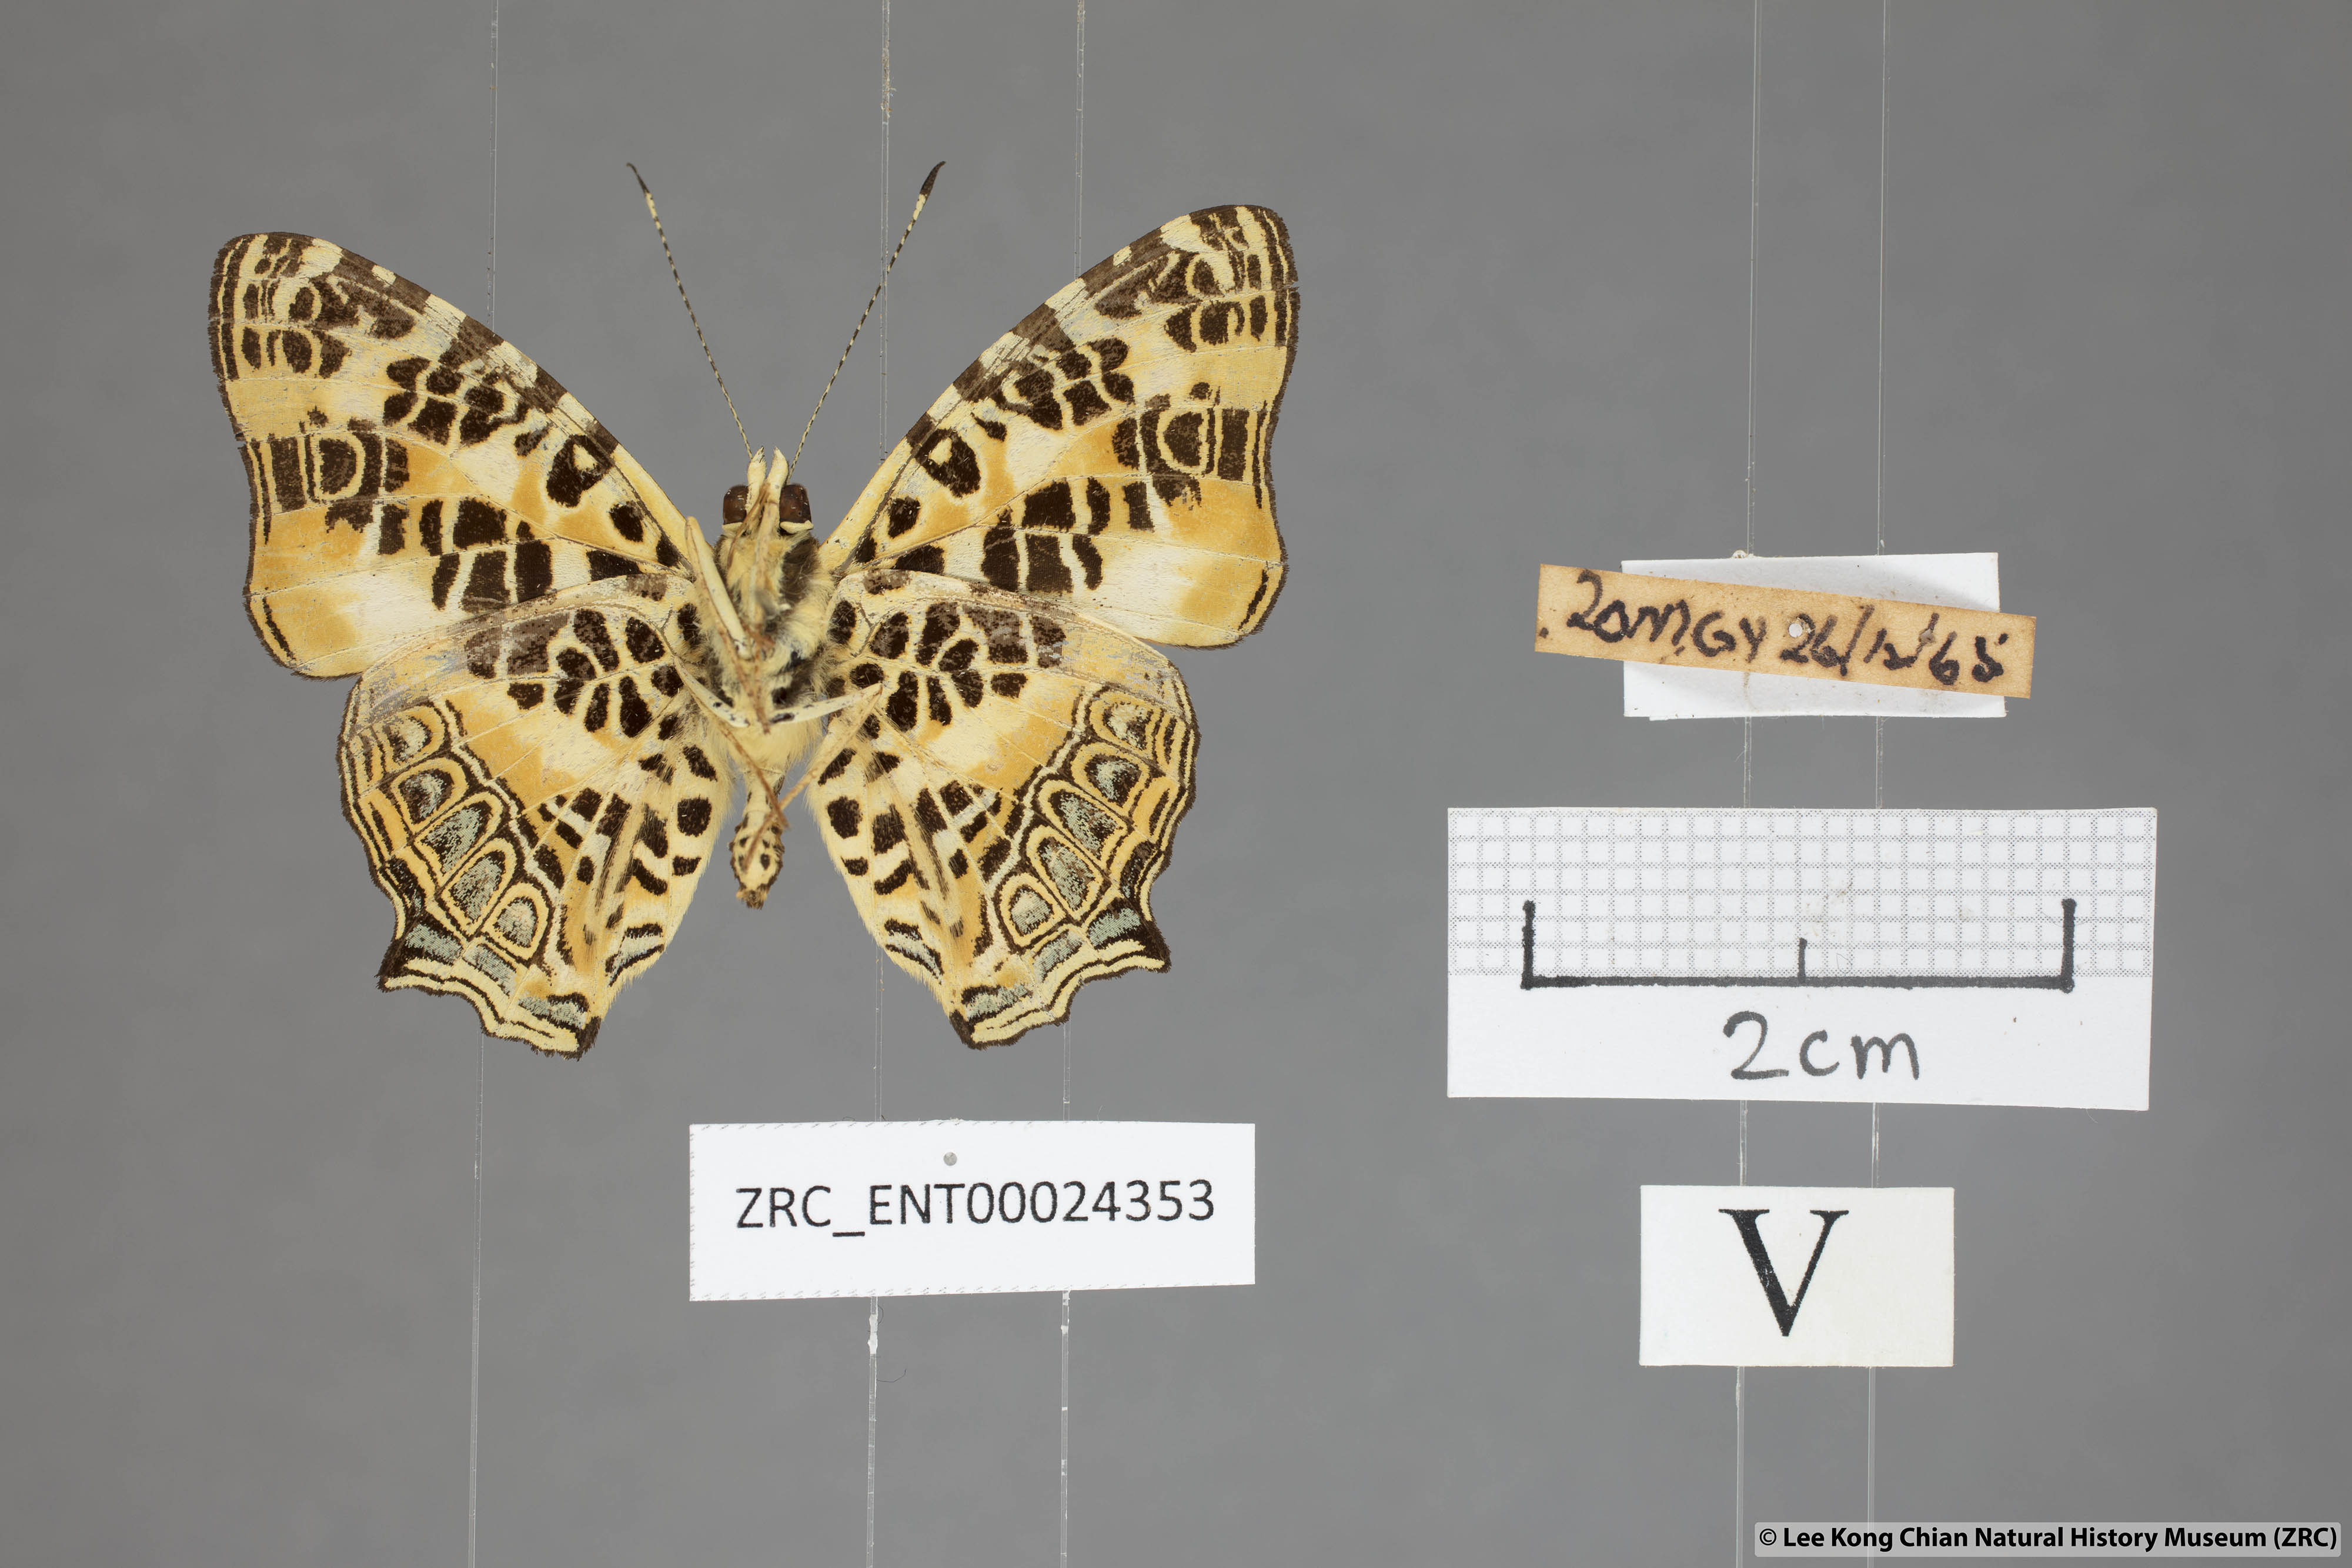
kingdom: Animalia
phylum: Arthropoda
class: Insecta
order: Lepidoptera
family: Nymphalidae
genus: Symbrenthia
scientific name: Symbrenthia hypselis
